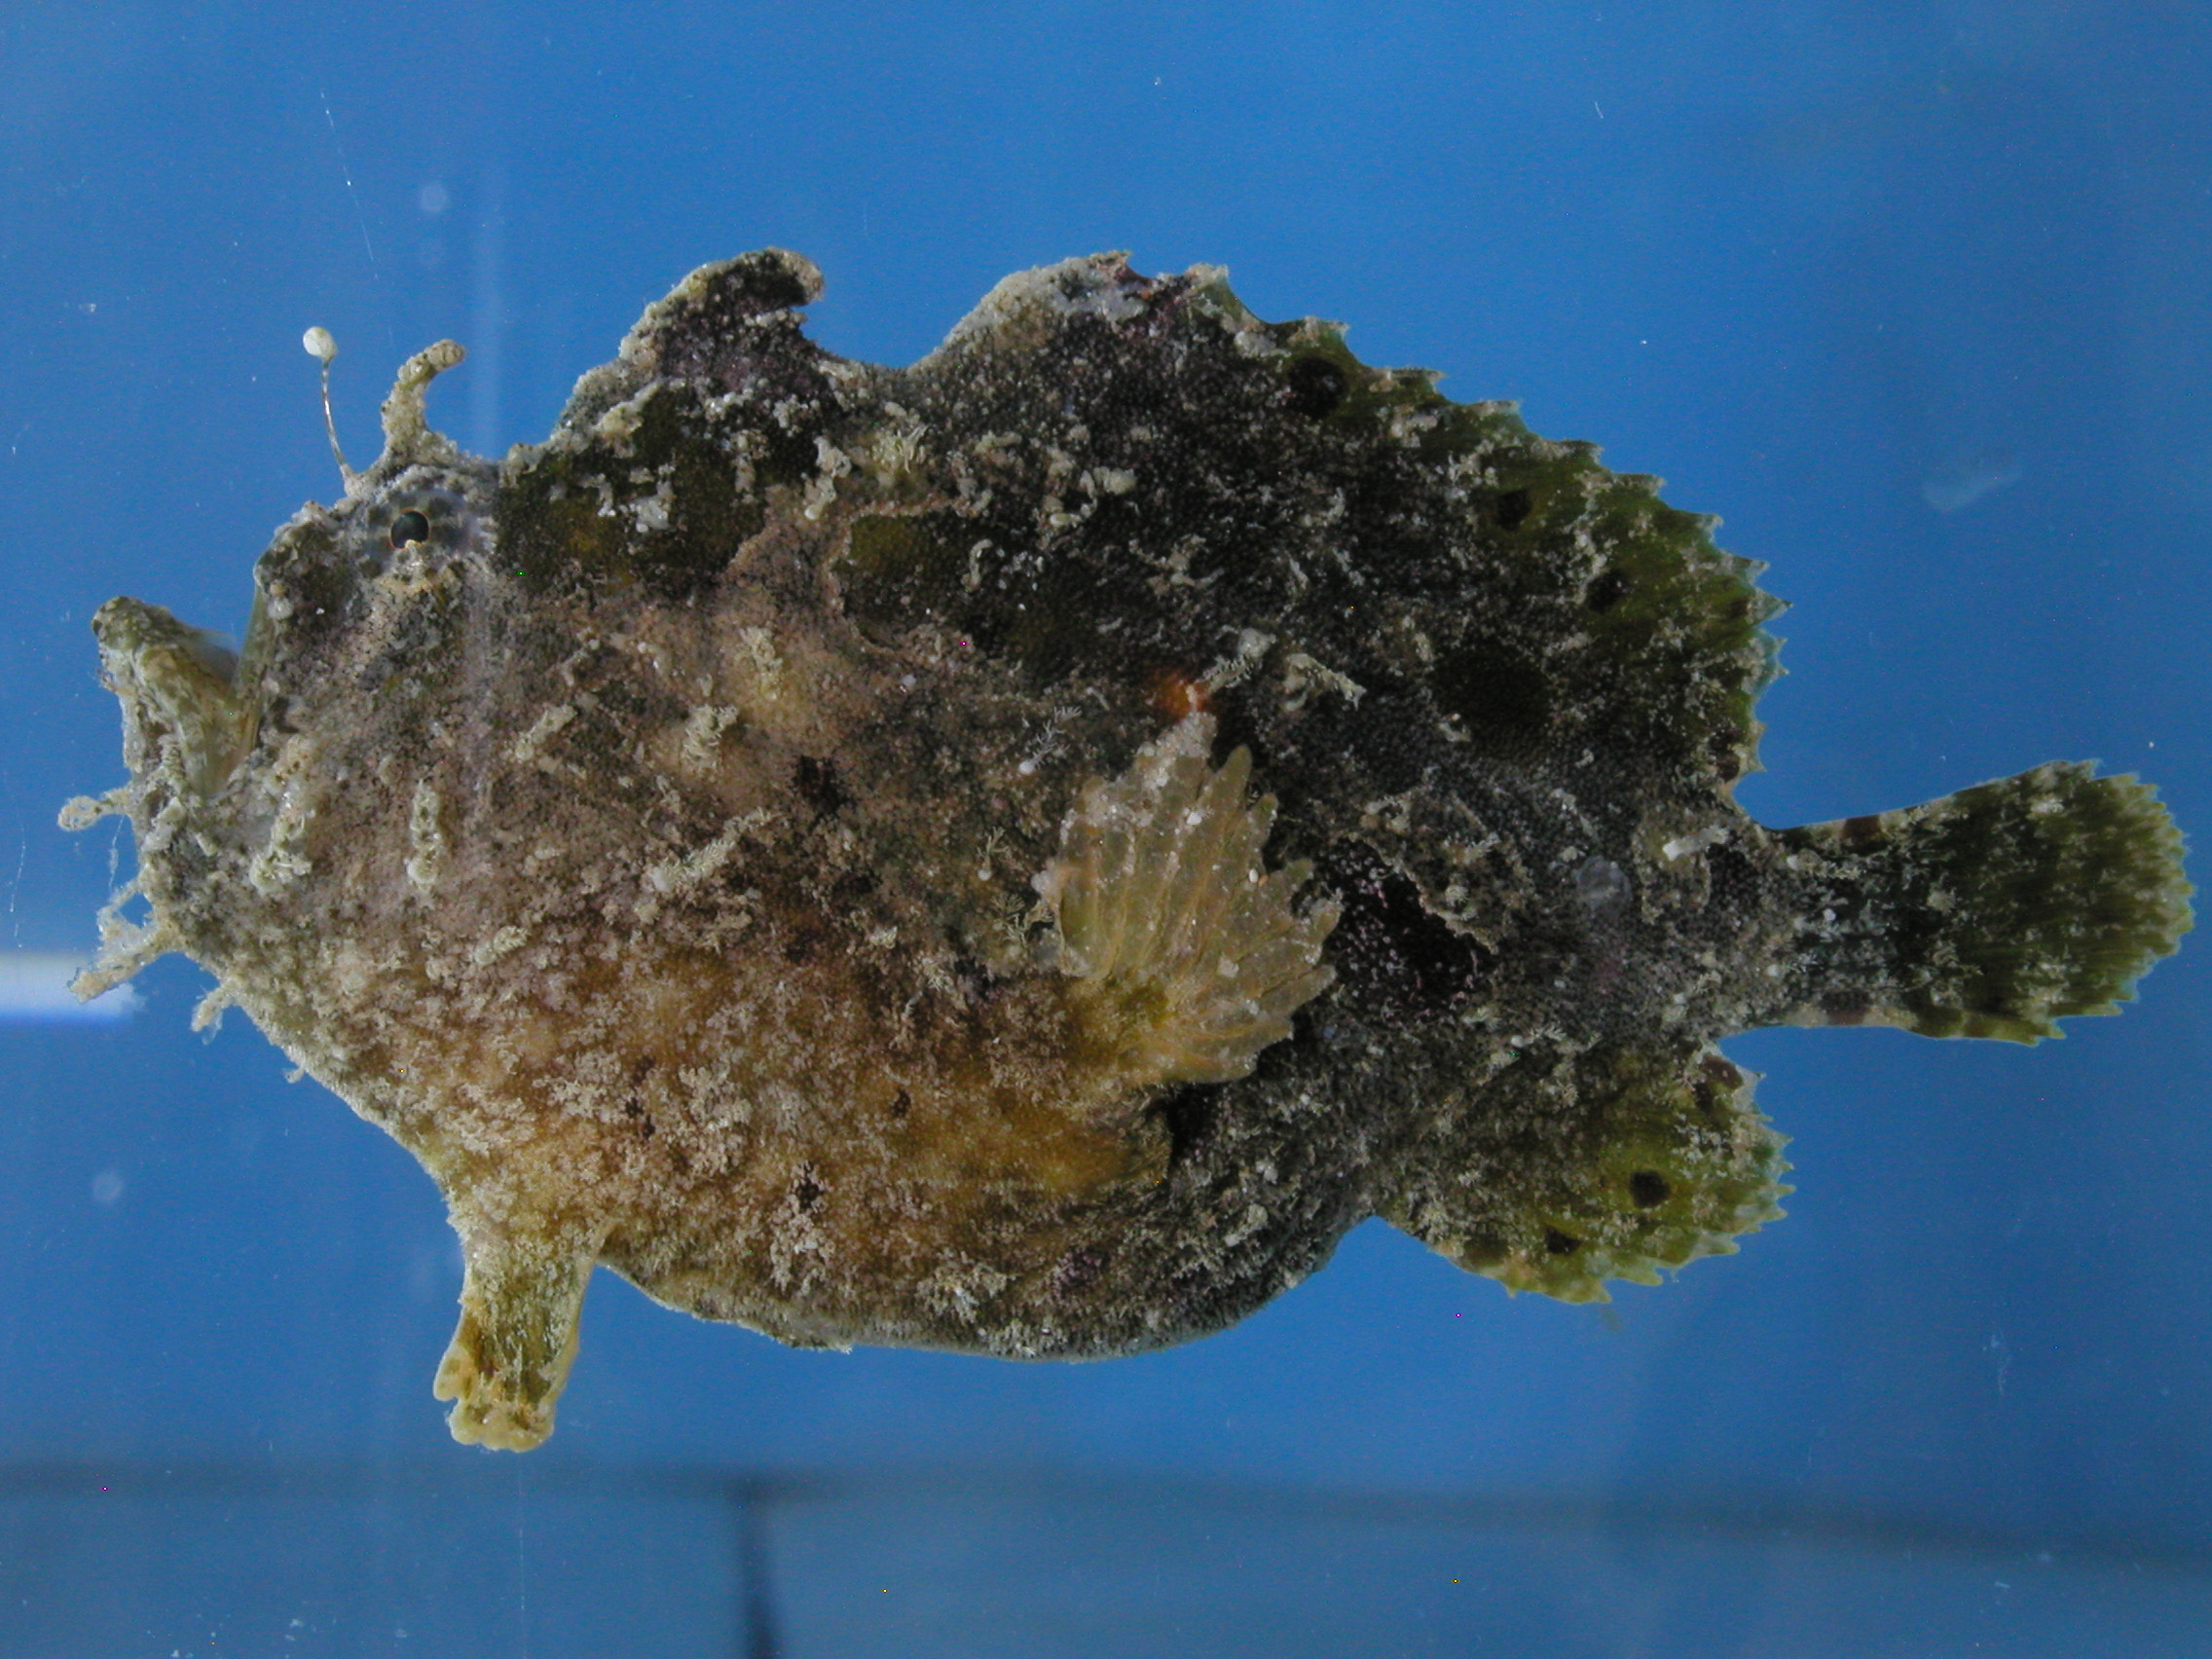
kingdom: Animalia
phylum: Chordata
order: Lophiiformes
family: Antennariidae
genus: Antennatus
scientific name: Antennatus coccineus
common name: Scarlet frogfish
